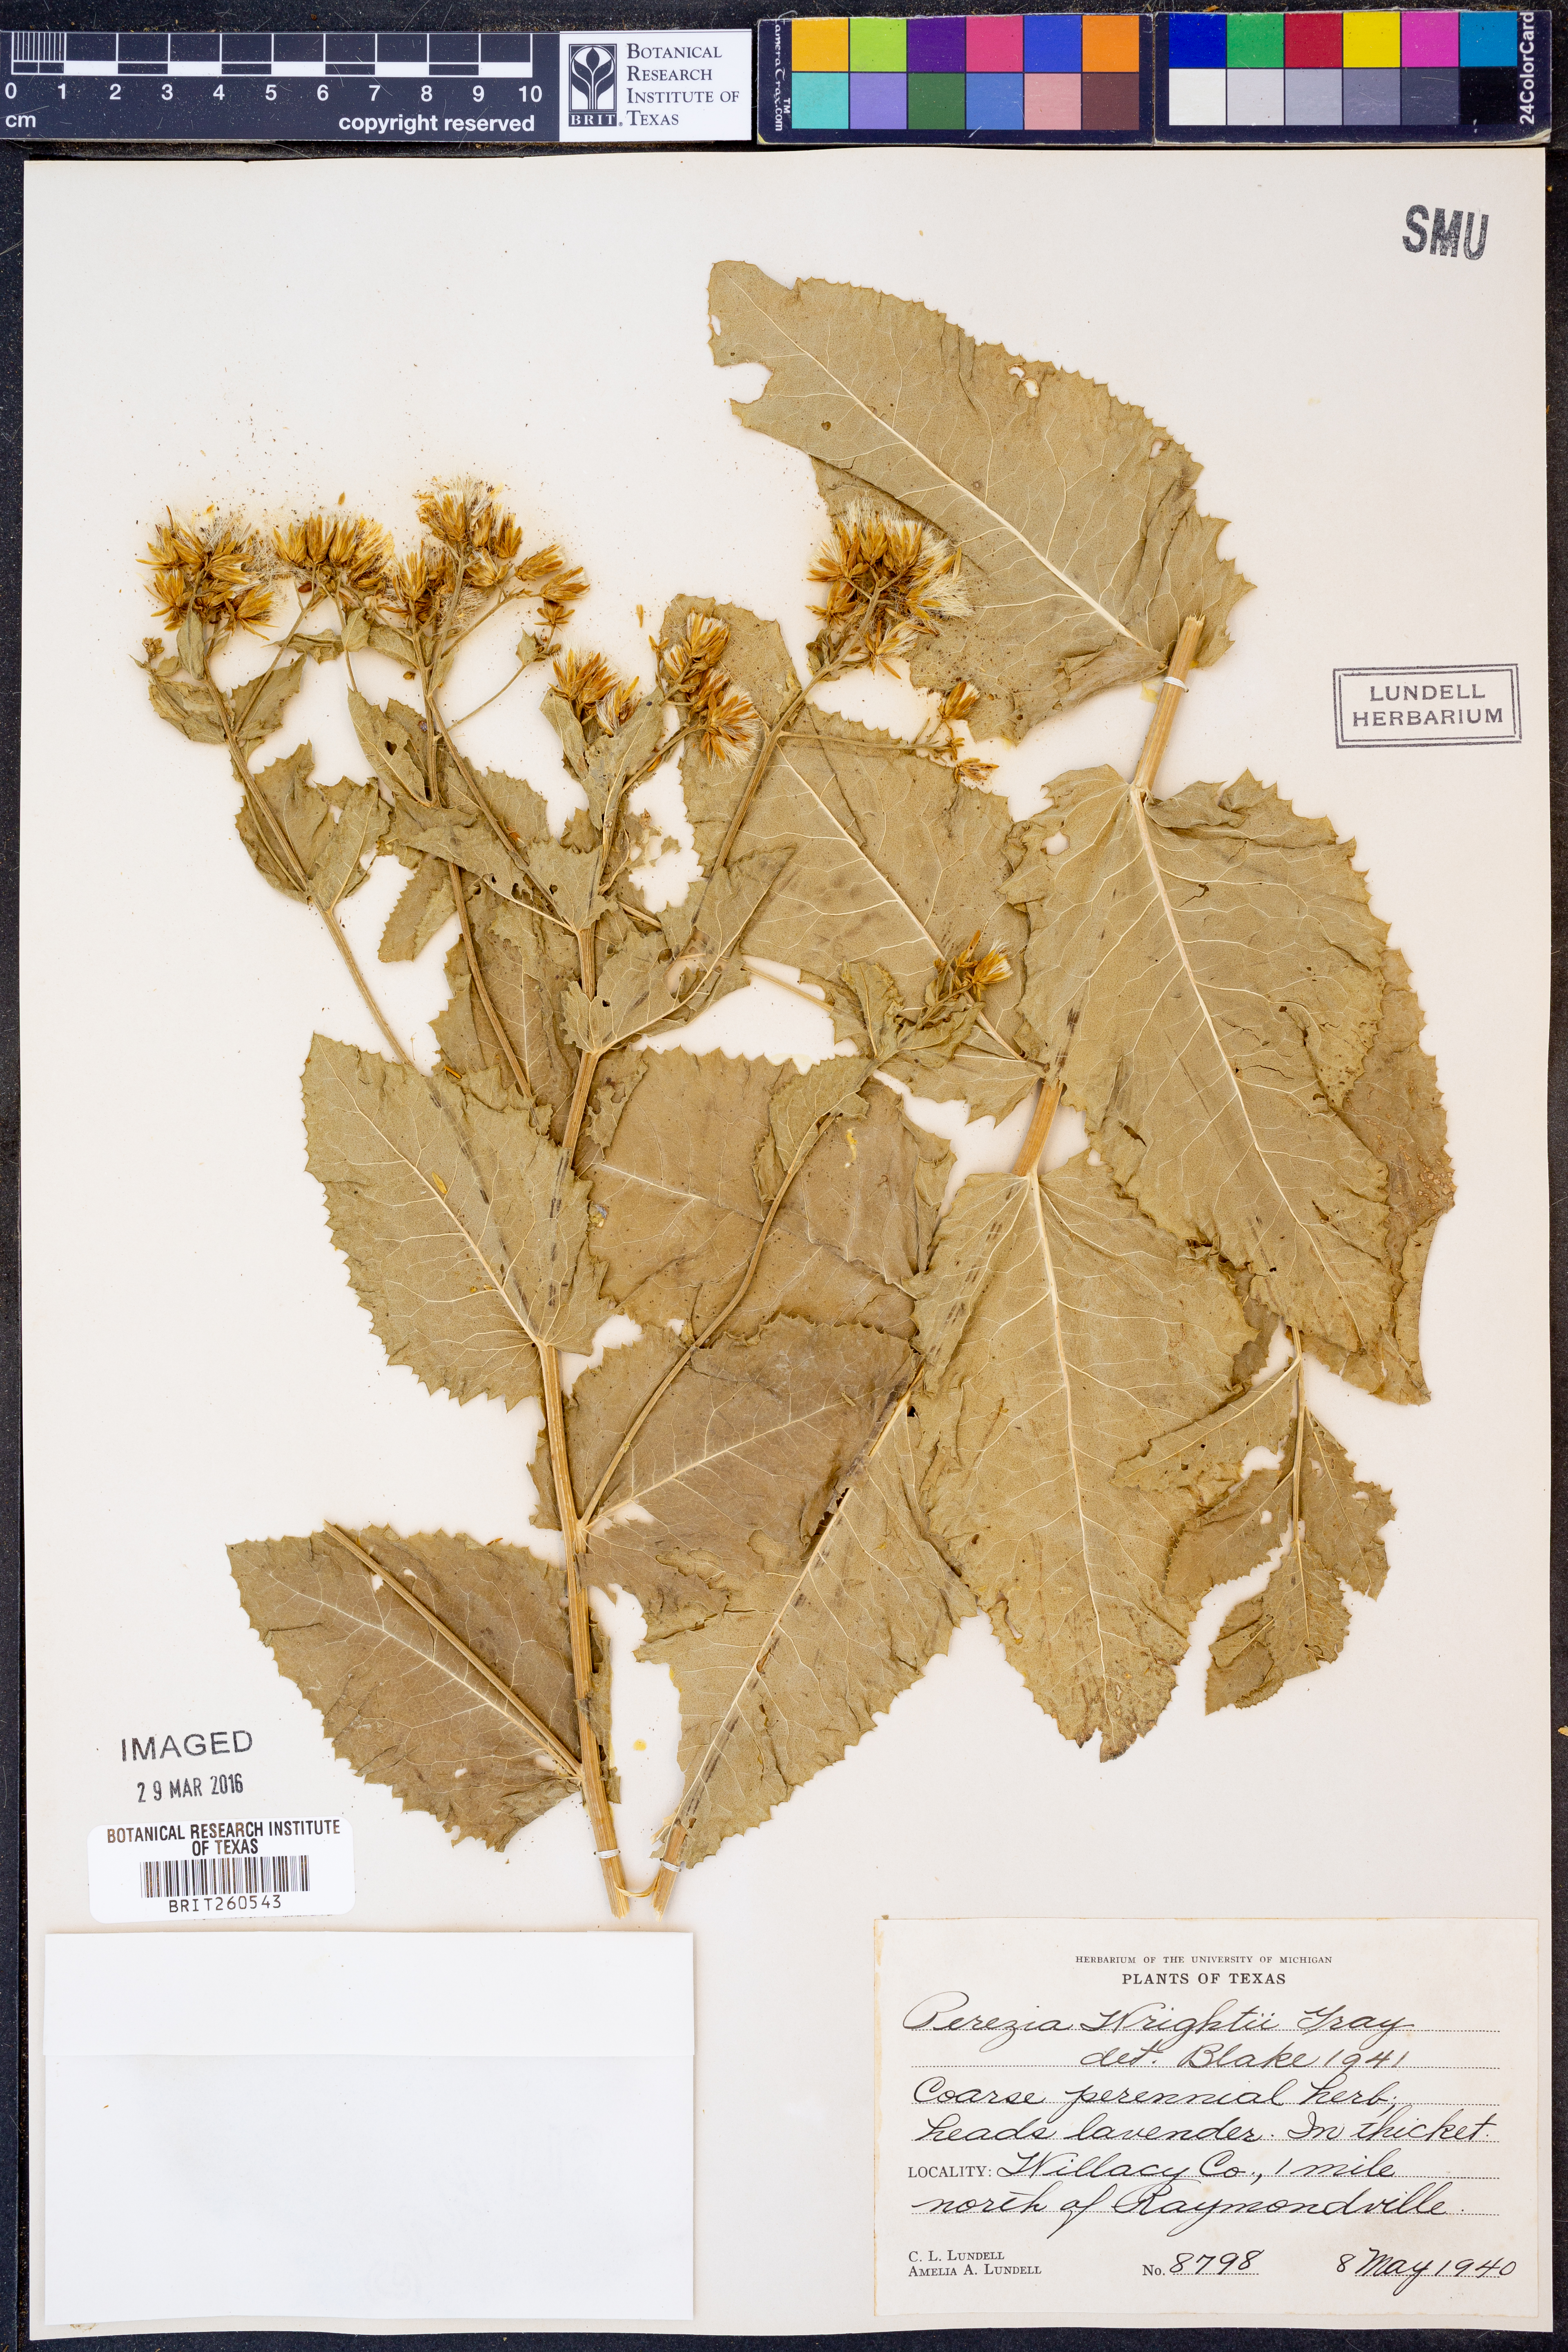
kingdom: Plantae
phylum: Tracheophyta
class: Magnoliopsida
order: Asterales
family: Asteraceae
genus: Acourtia
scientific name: Acourtia wrightii
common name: Brownfoot
